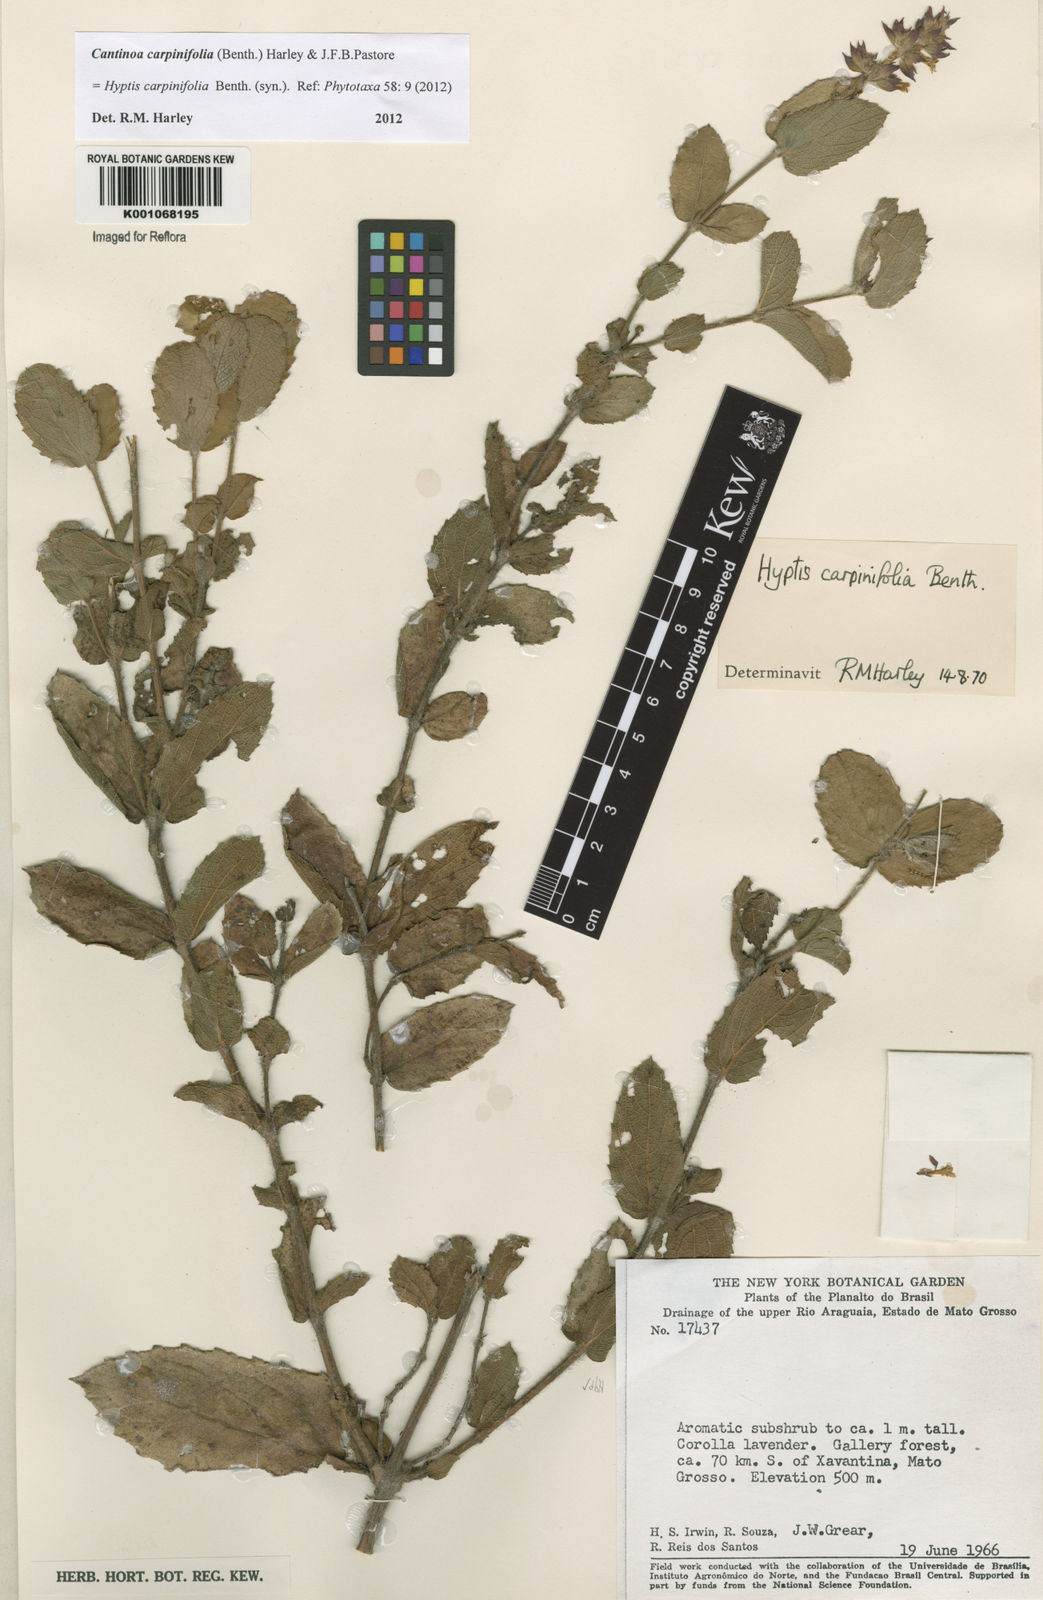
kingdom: Plantae
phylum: Tracheophyta
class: Magnoliopsida
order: Lamiales
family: Lamiaceae
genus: Cantinoa
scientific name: Cantinoa carpinifolia
